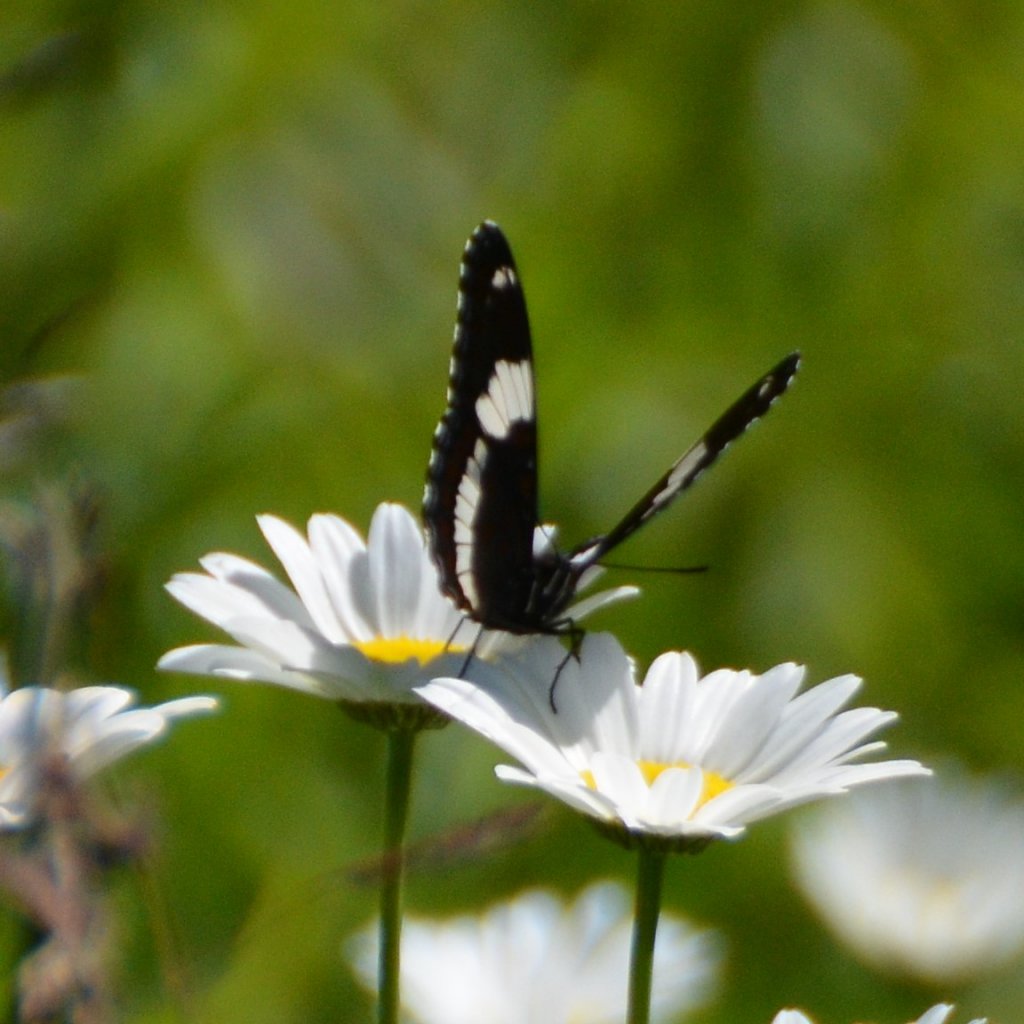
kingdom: Animalia
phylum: Arthropoda
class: Insecta
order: Lepidoptera
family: Nymphalidae
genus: Limenitis
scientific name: Limenitis arthemis
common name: Red-spotted Admiral
